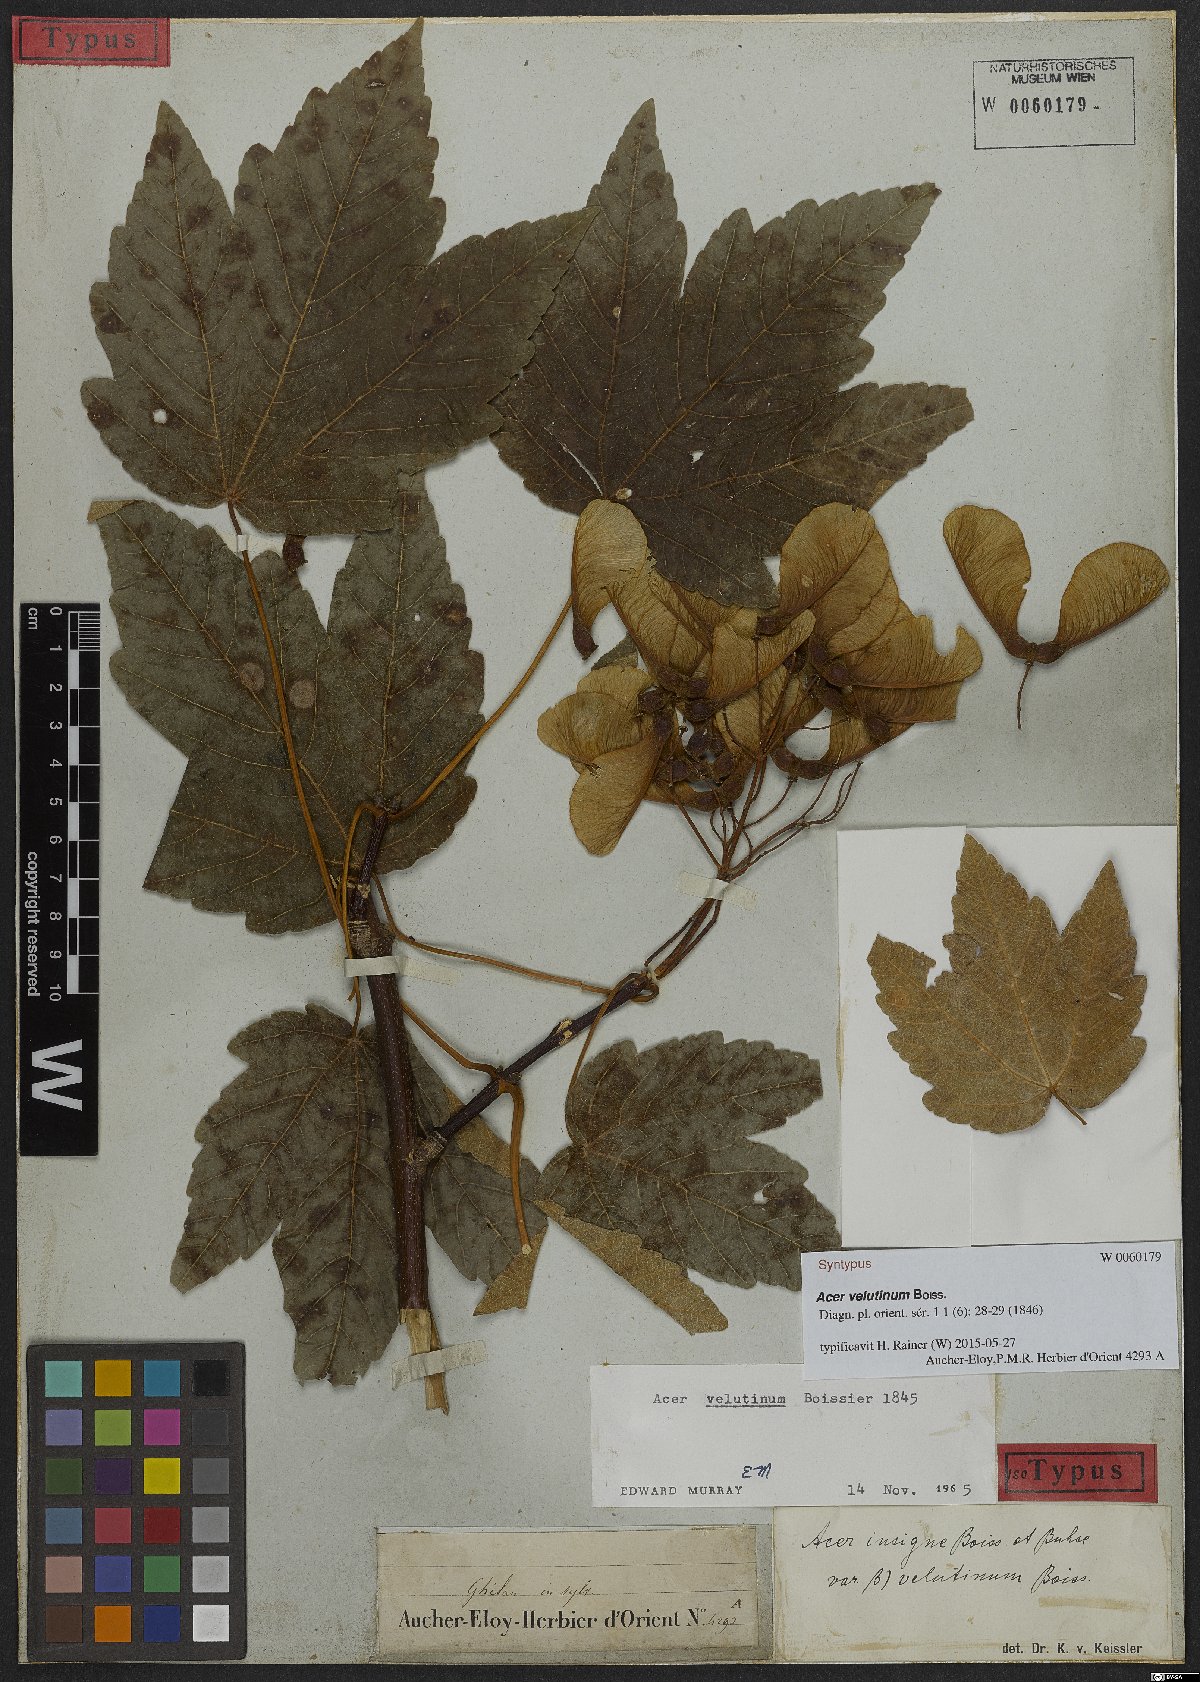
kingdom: Plantae
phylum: Tracheophyta
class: Magnoliopsida
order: Sapindales
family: Sapindaceae
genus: Acer
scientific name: Acer velutinum
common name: Velvet maple
